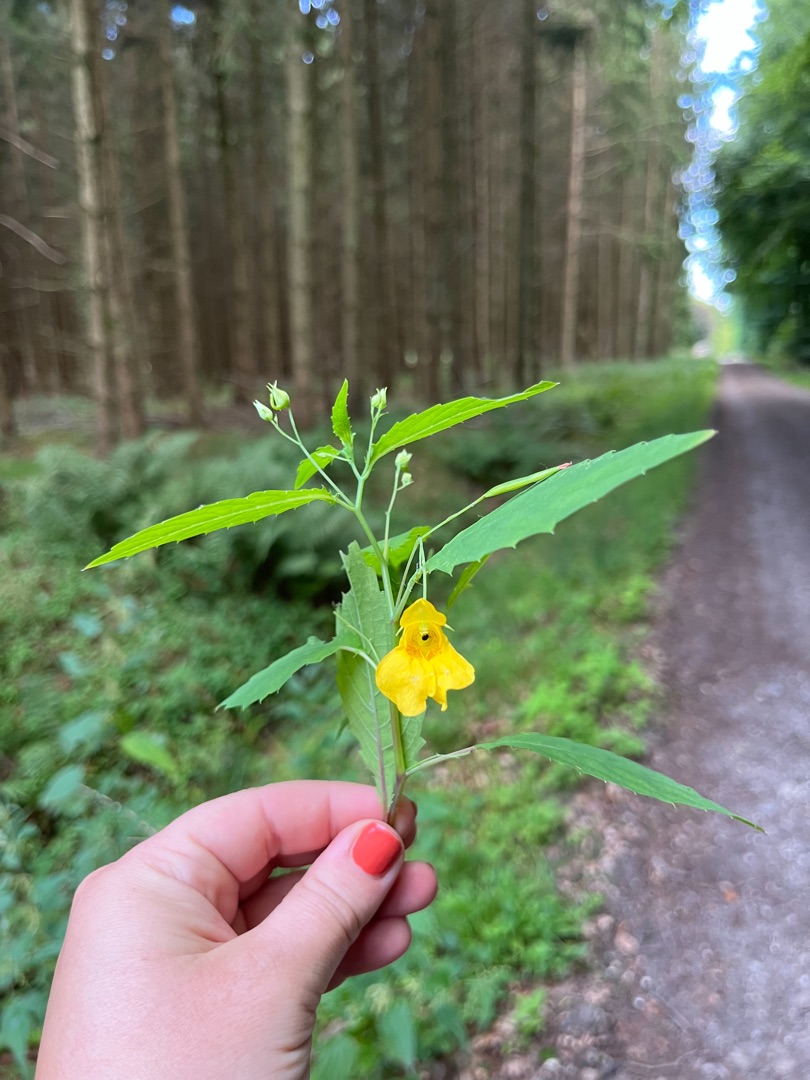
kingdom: Plantae
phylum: Tracheophyta
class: Magnoliopsida
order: Ericales
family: Balsaminaceae
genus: Impatiens
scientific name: Impatiens noli-tangere
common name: Spring-balsamin
